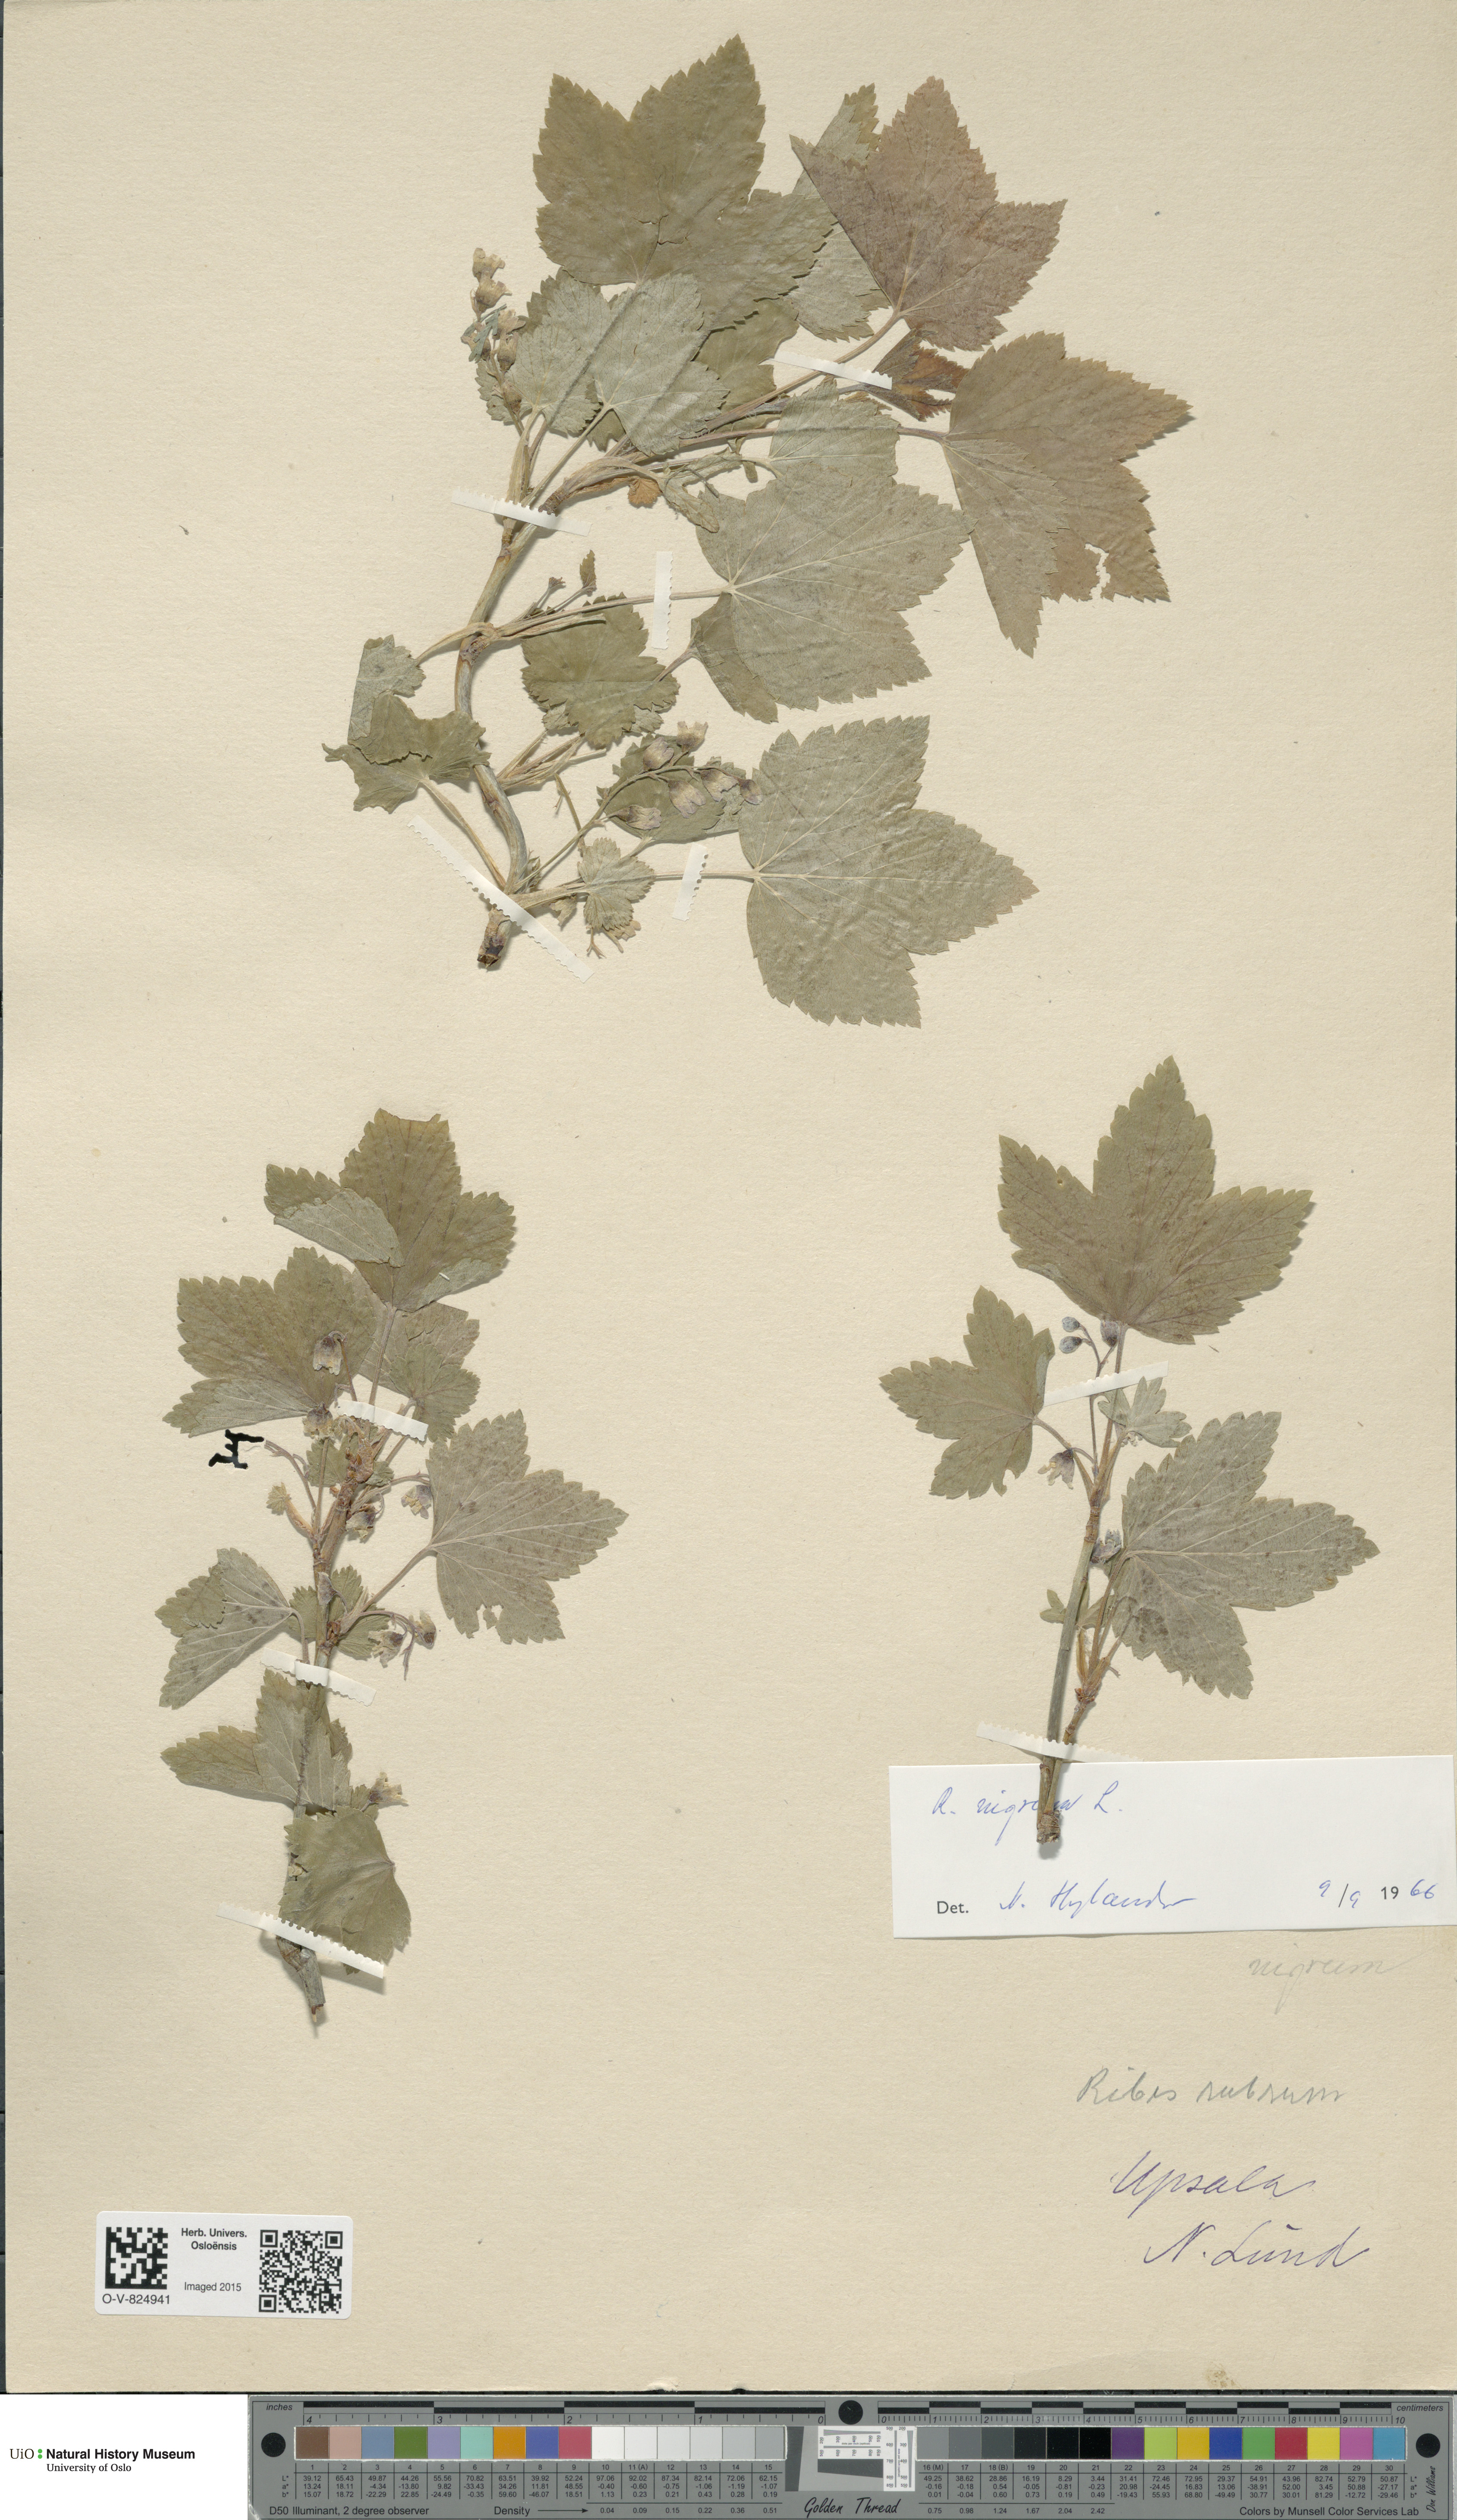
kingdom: Plantae
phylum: Tracheophyta
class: Magnoliopsida
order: Saxifragales
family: Grossulariaceae
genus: Ribes
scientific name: Ribes nigrum
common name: Black currant
